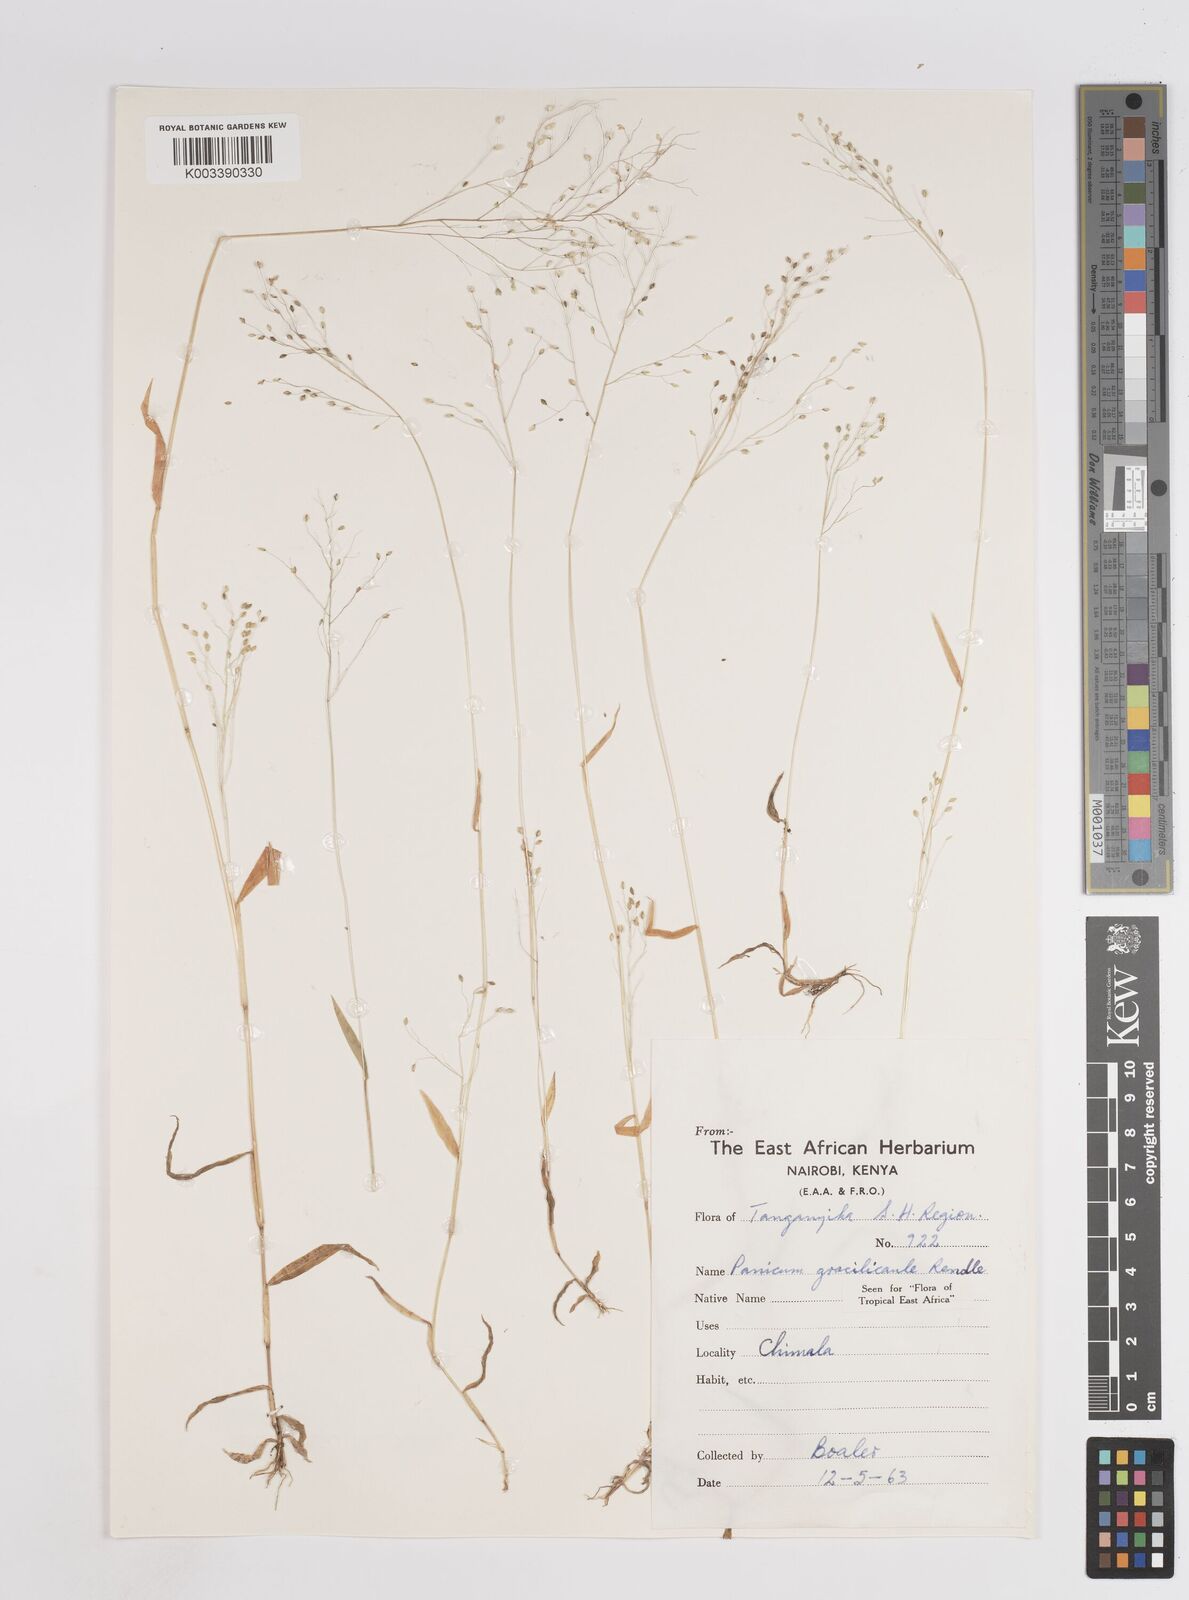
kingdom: Plantae
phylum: Tracheophyta
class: Liliopsida
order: Poales
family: Poaceae
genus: Trichanthecium
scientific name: Trichanthecium gracilicaule
